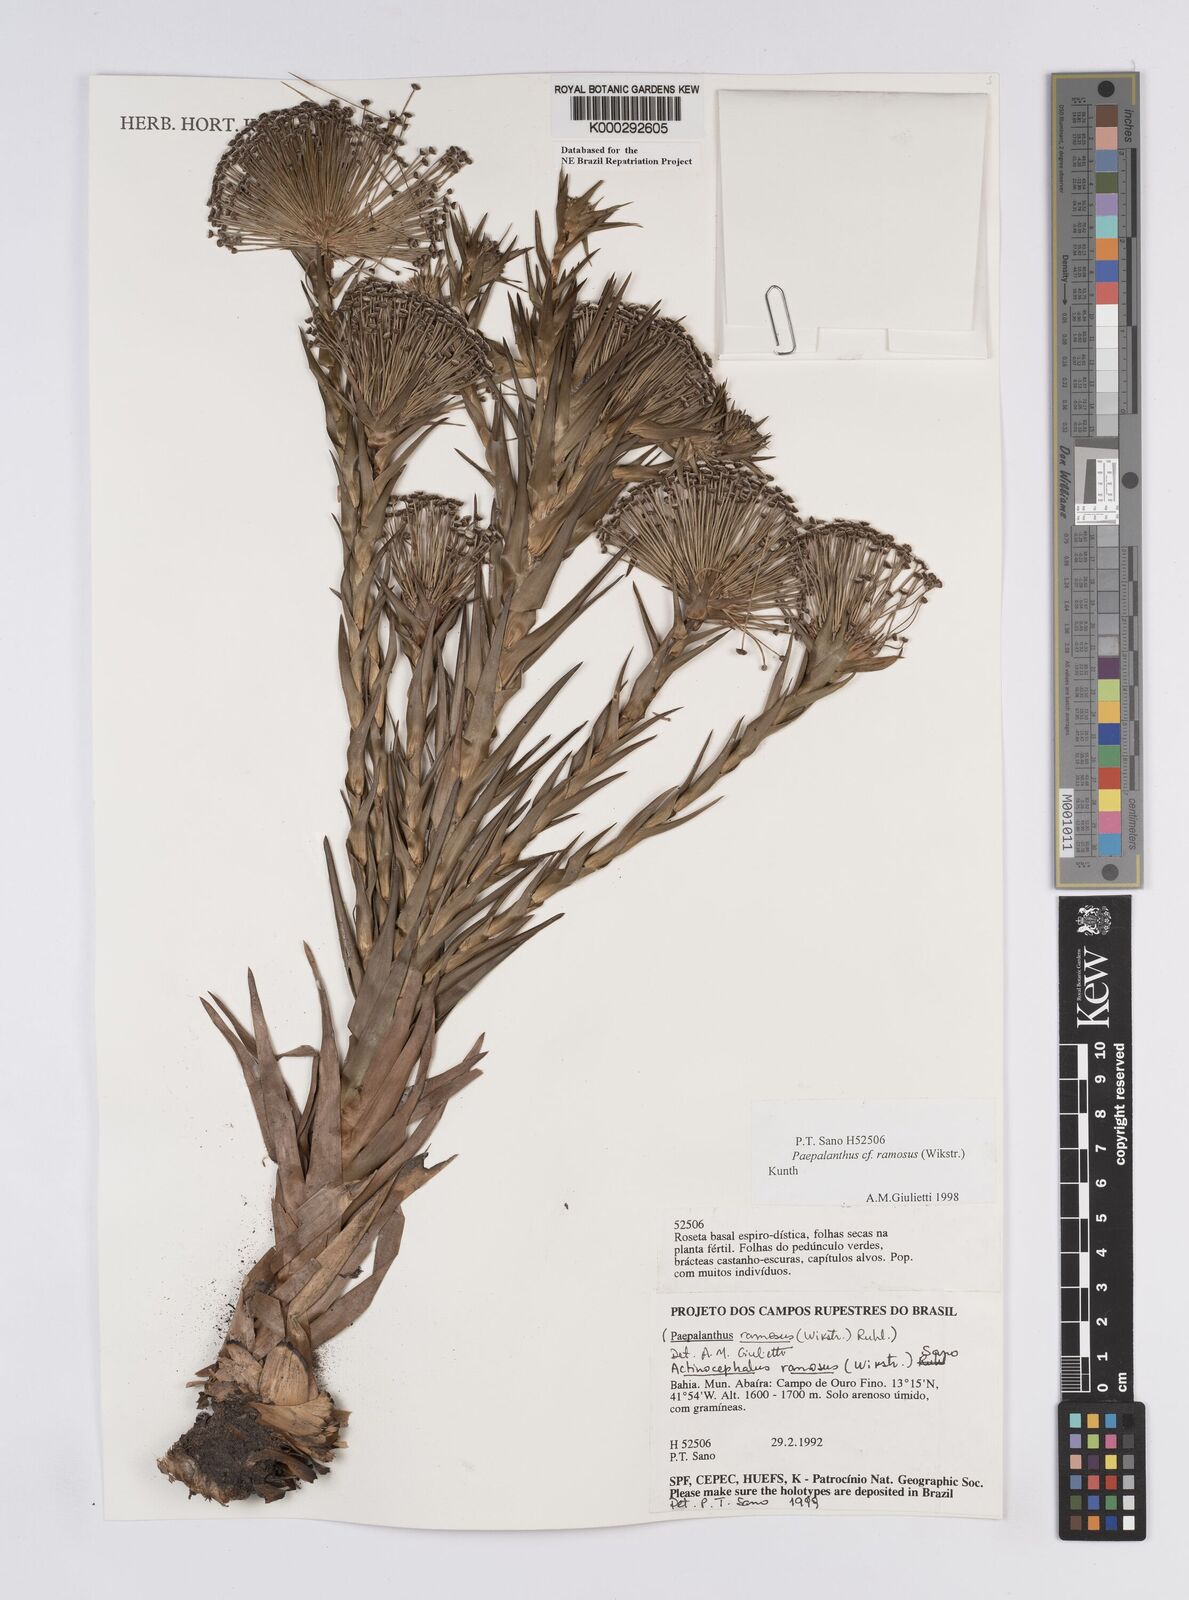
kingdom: Plantae
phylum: Tracheophyta
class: Liliopsida
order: Poales
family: Eriocaulaceae
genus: Paepalanthus
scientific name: Paepalanthus ramosus
